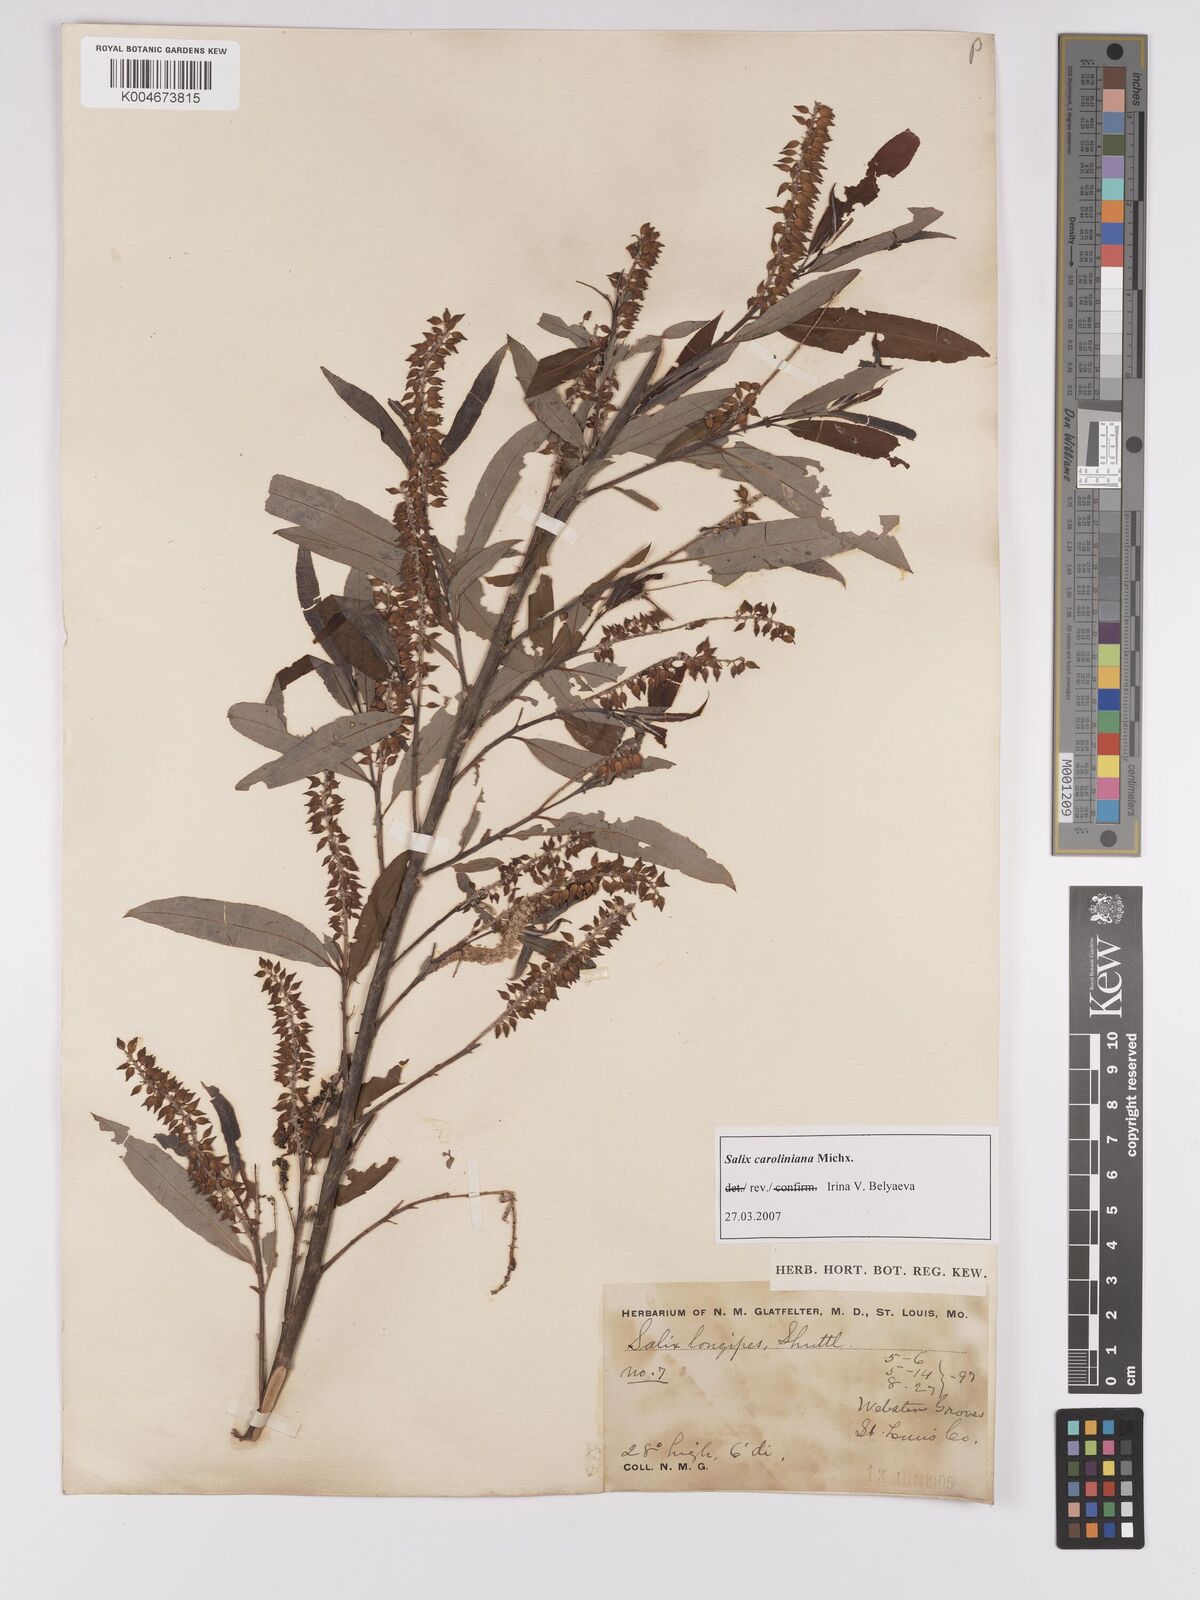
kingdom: Plantae
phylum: Tracheophyta
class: Magnoliopsida
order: Malpighiales
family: Salicaceae
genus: Salix
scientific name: Salix caroliniana
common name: Carolina willow
